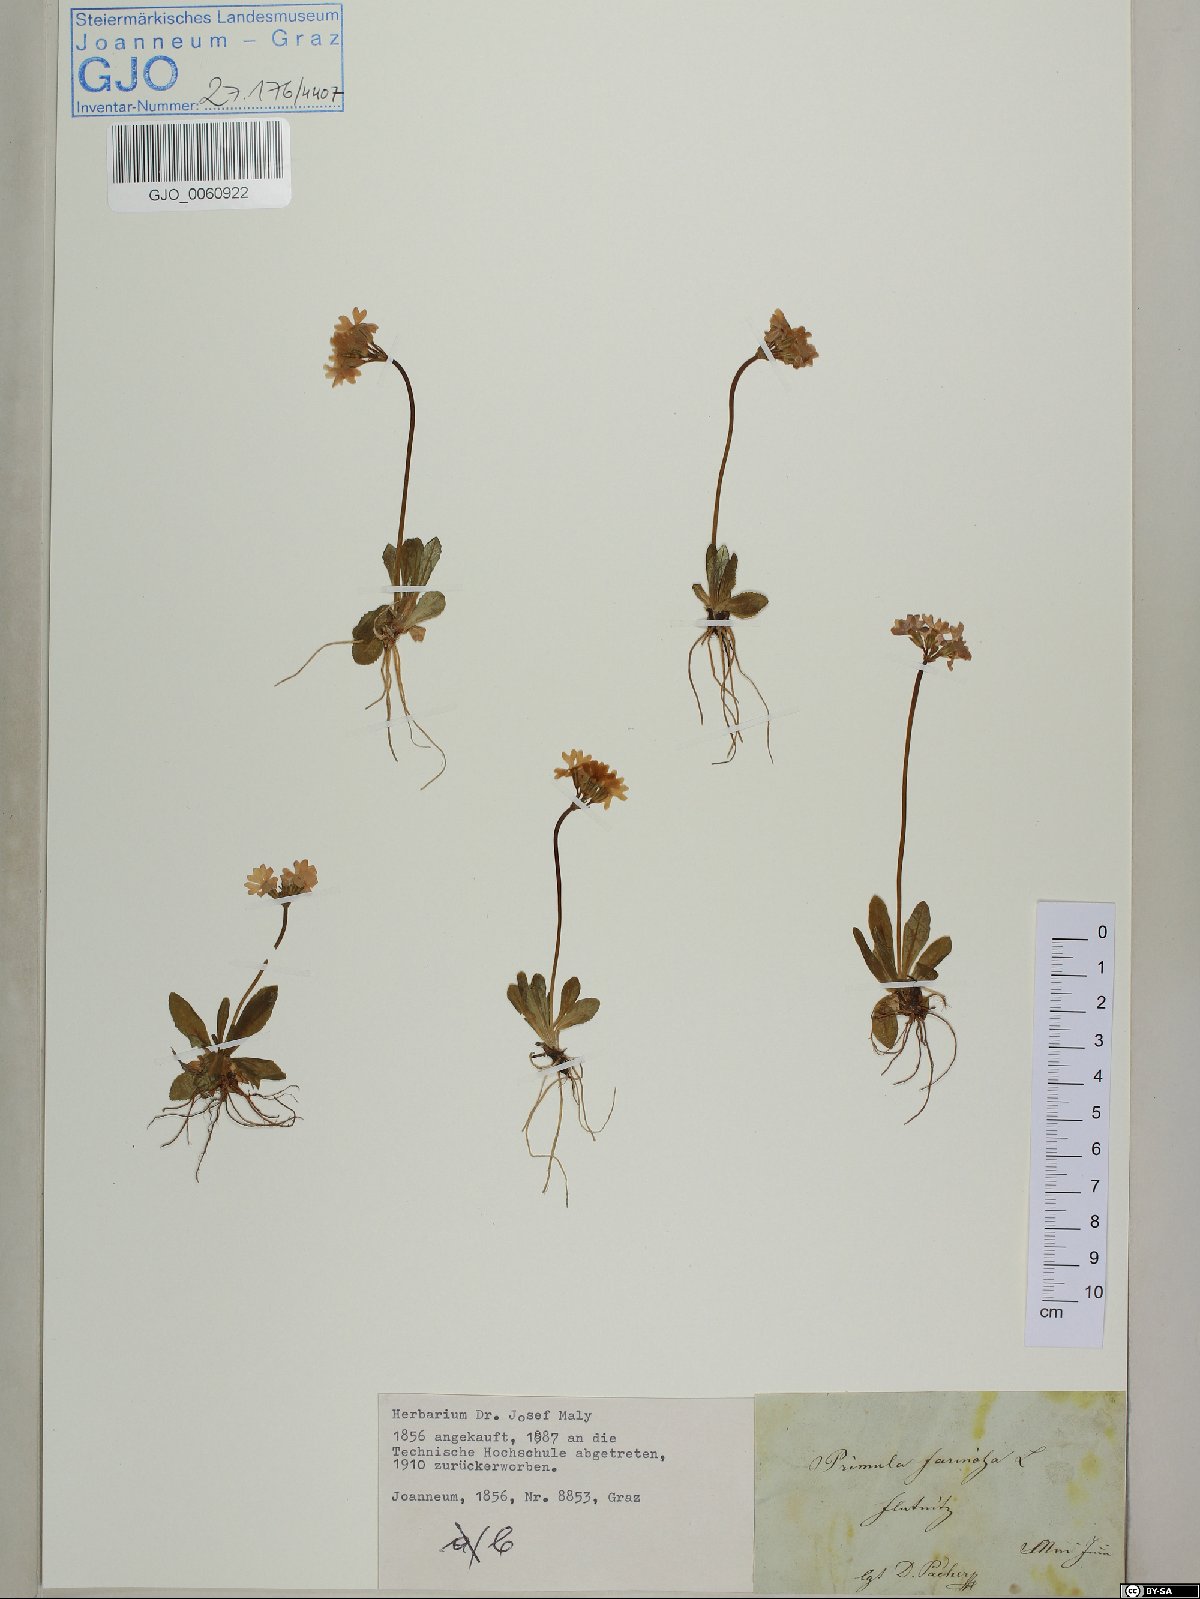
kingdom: Plantae
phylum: Tracheophyta
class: Magnoliopsida
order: Ericales
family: Primulaceae
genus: Primula
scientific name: Primula farinosa
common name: Bird's-eye primrose
